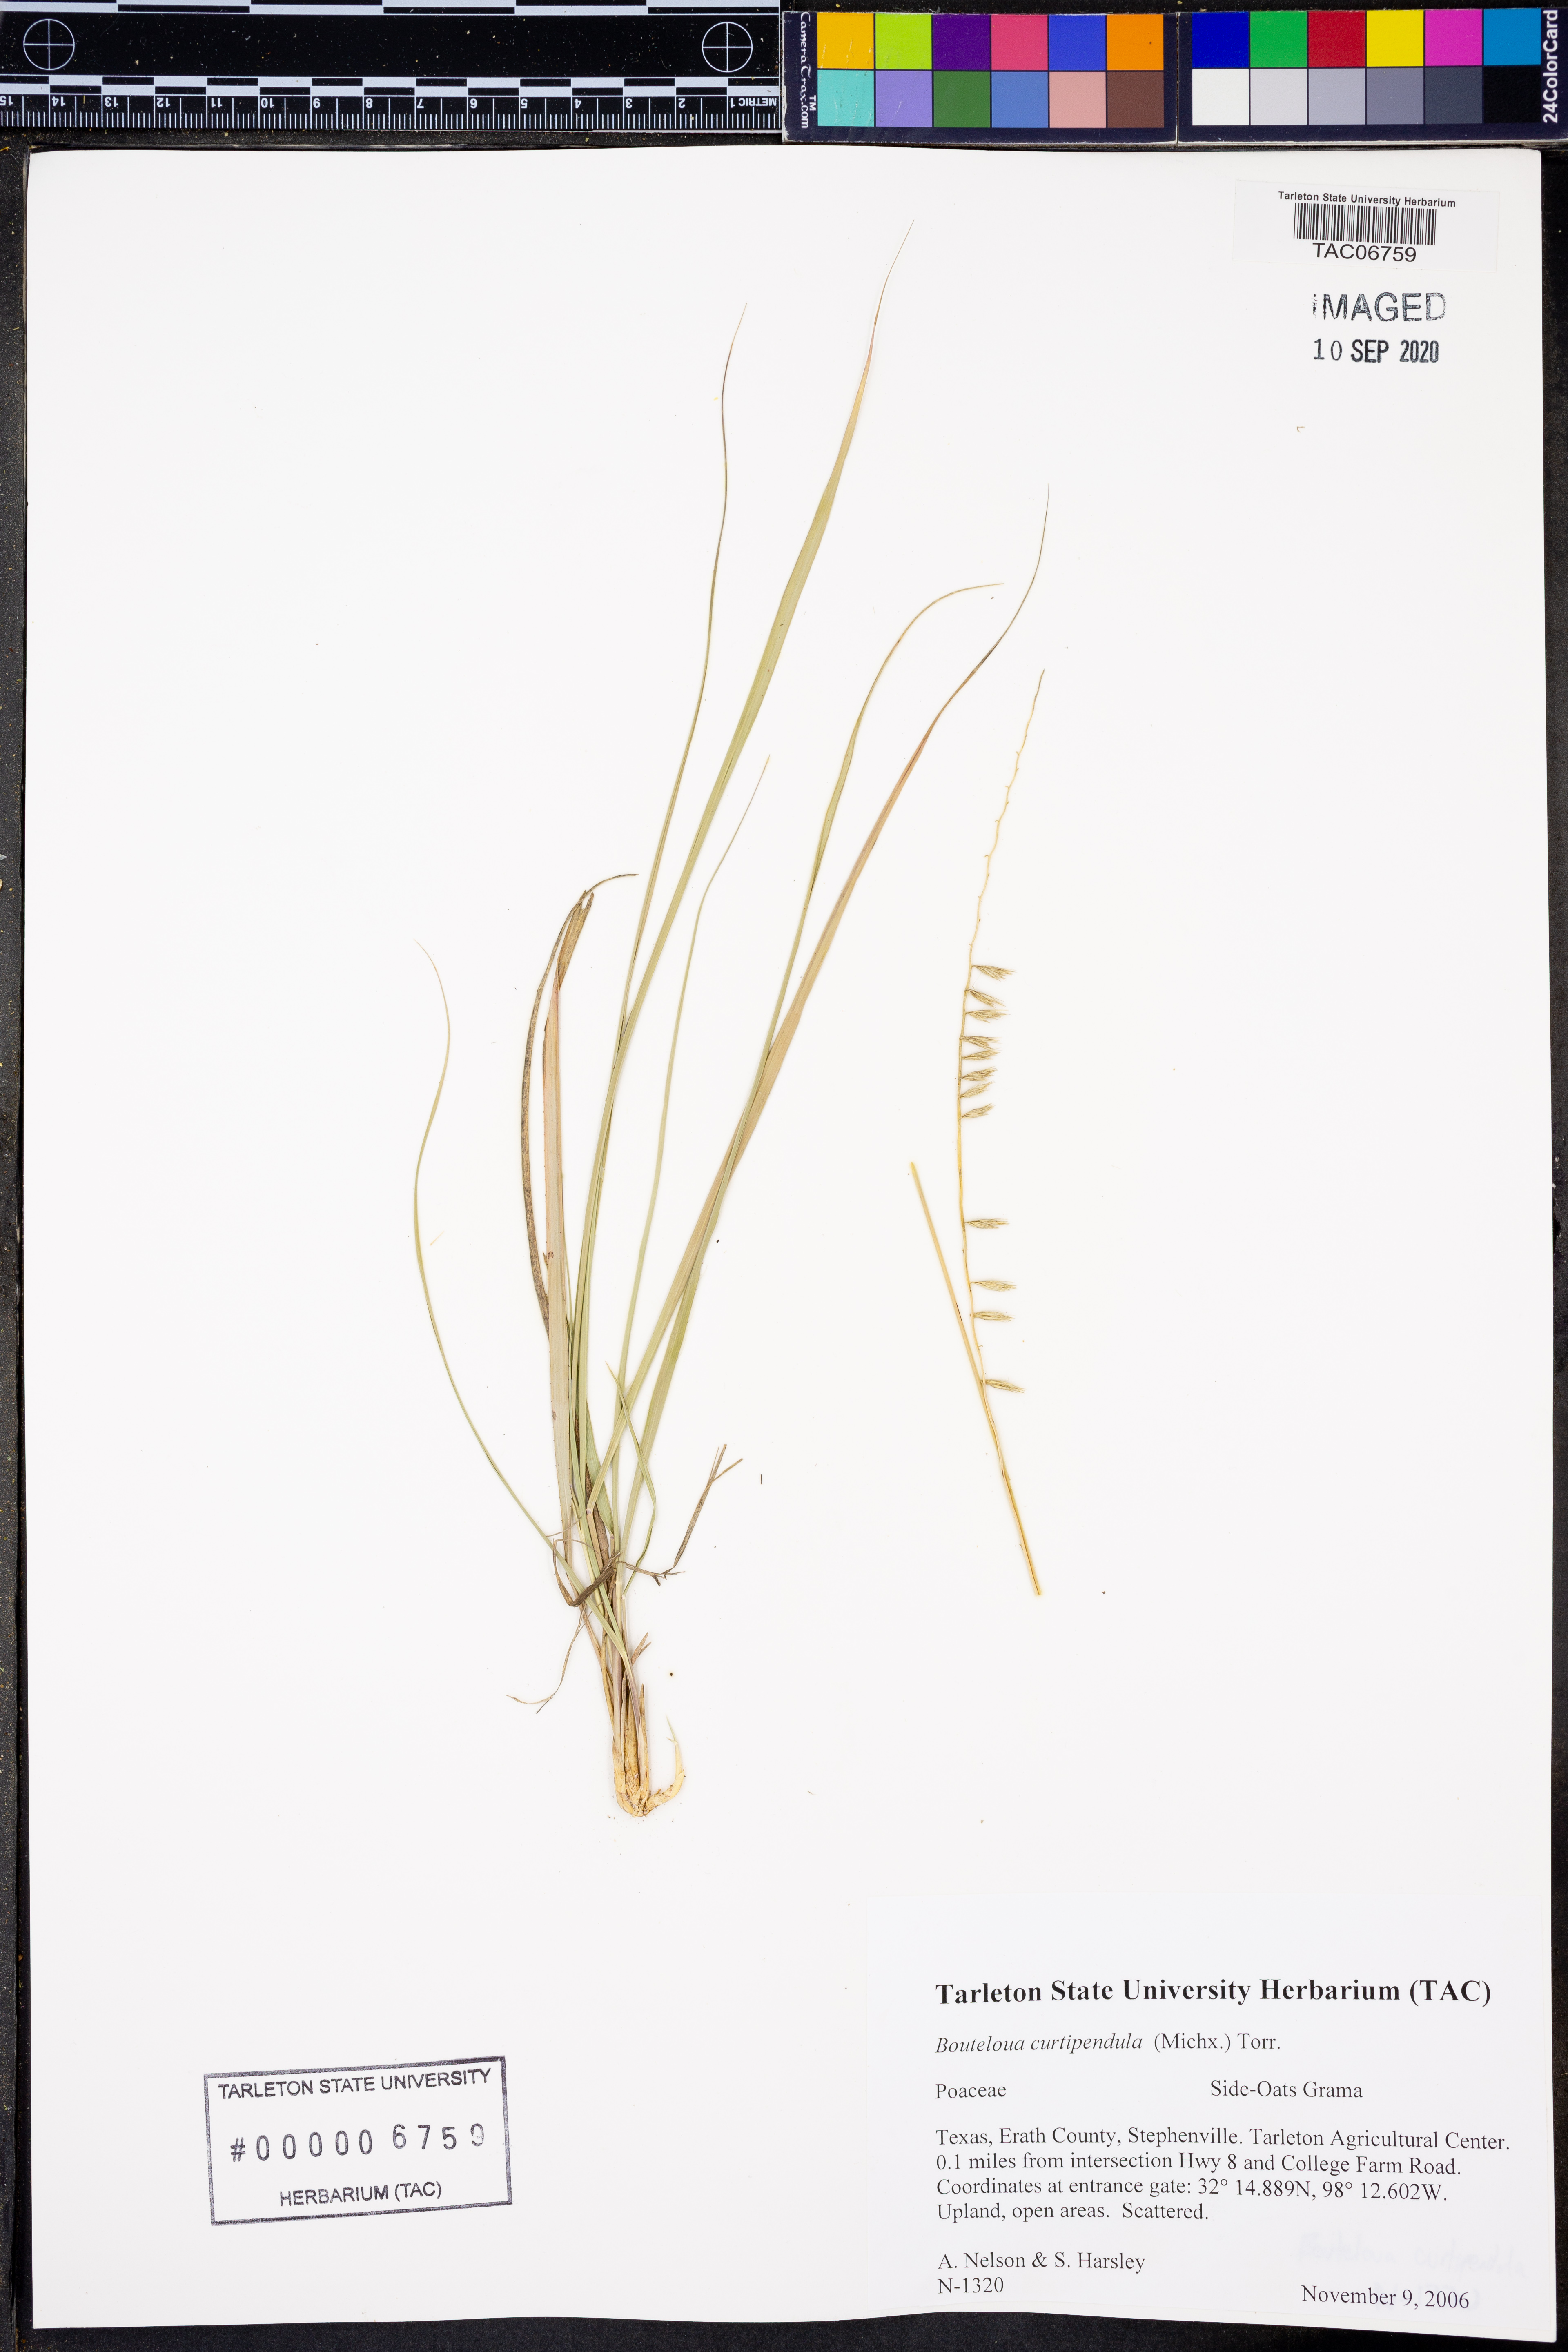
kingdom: Plantae
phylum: Tracheophyta
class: Liliopsida
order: Poales
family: Poaceae
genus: Bouteloua
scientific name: Bouteloua curtipendula
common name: Side-oats grama
